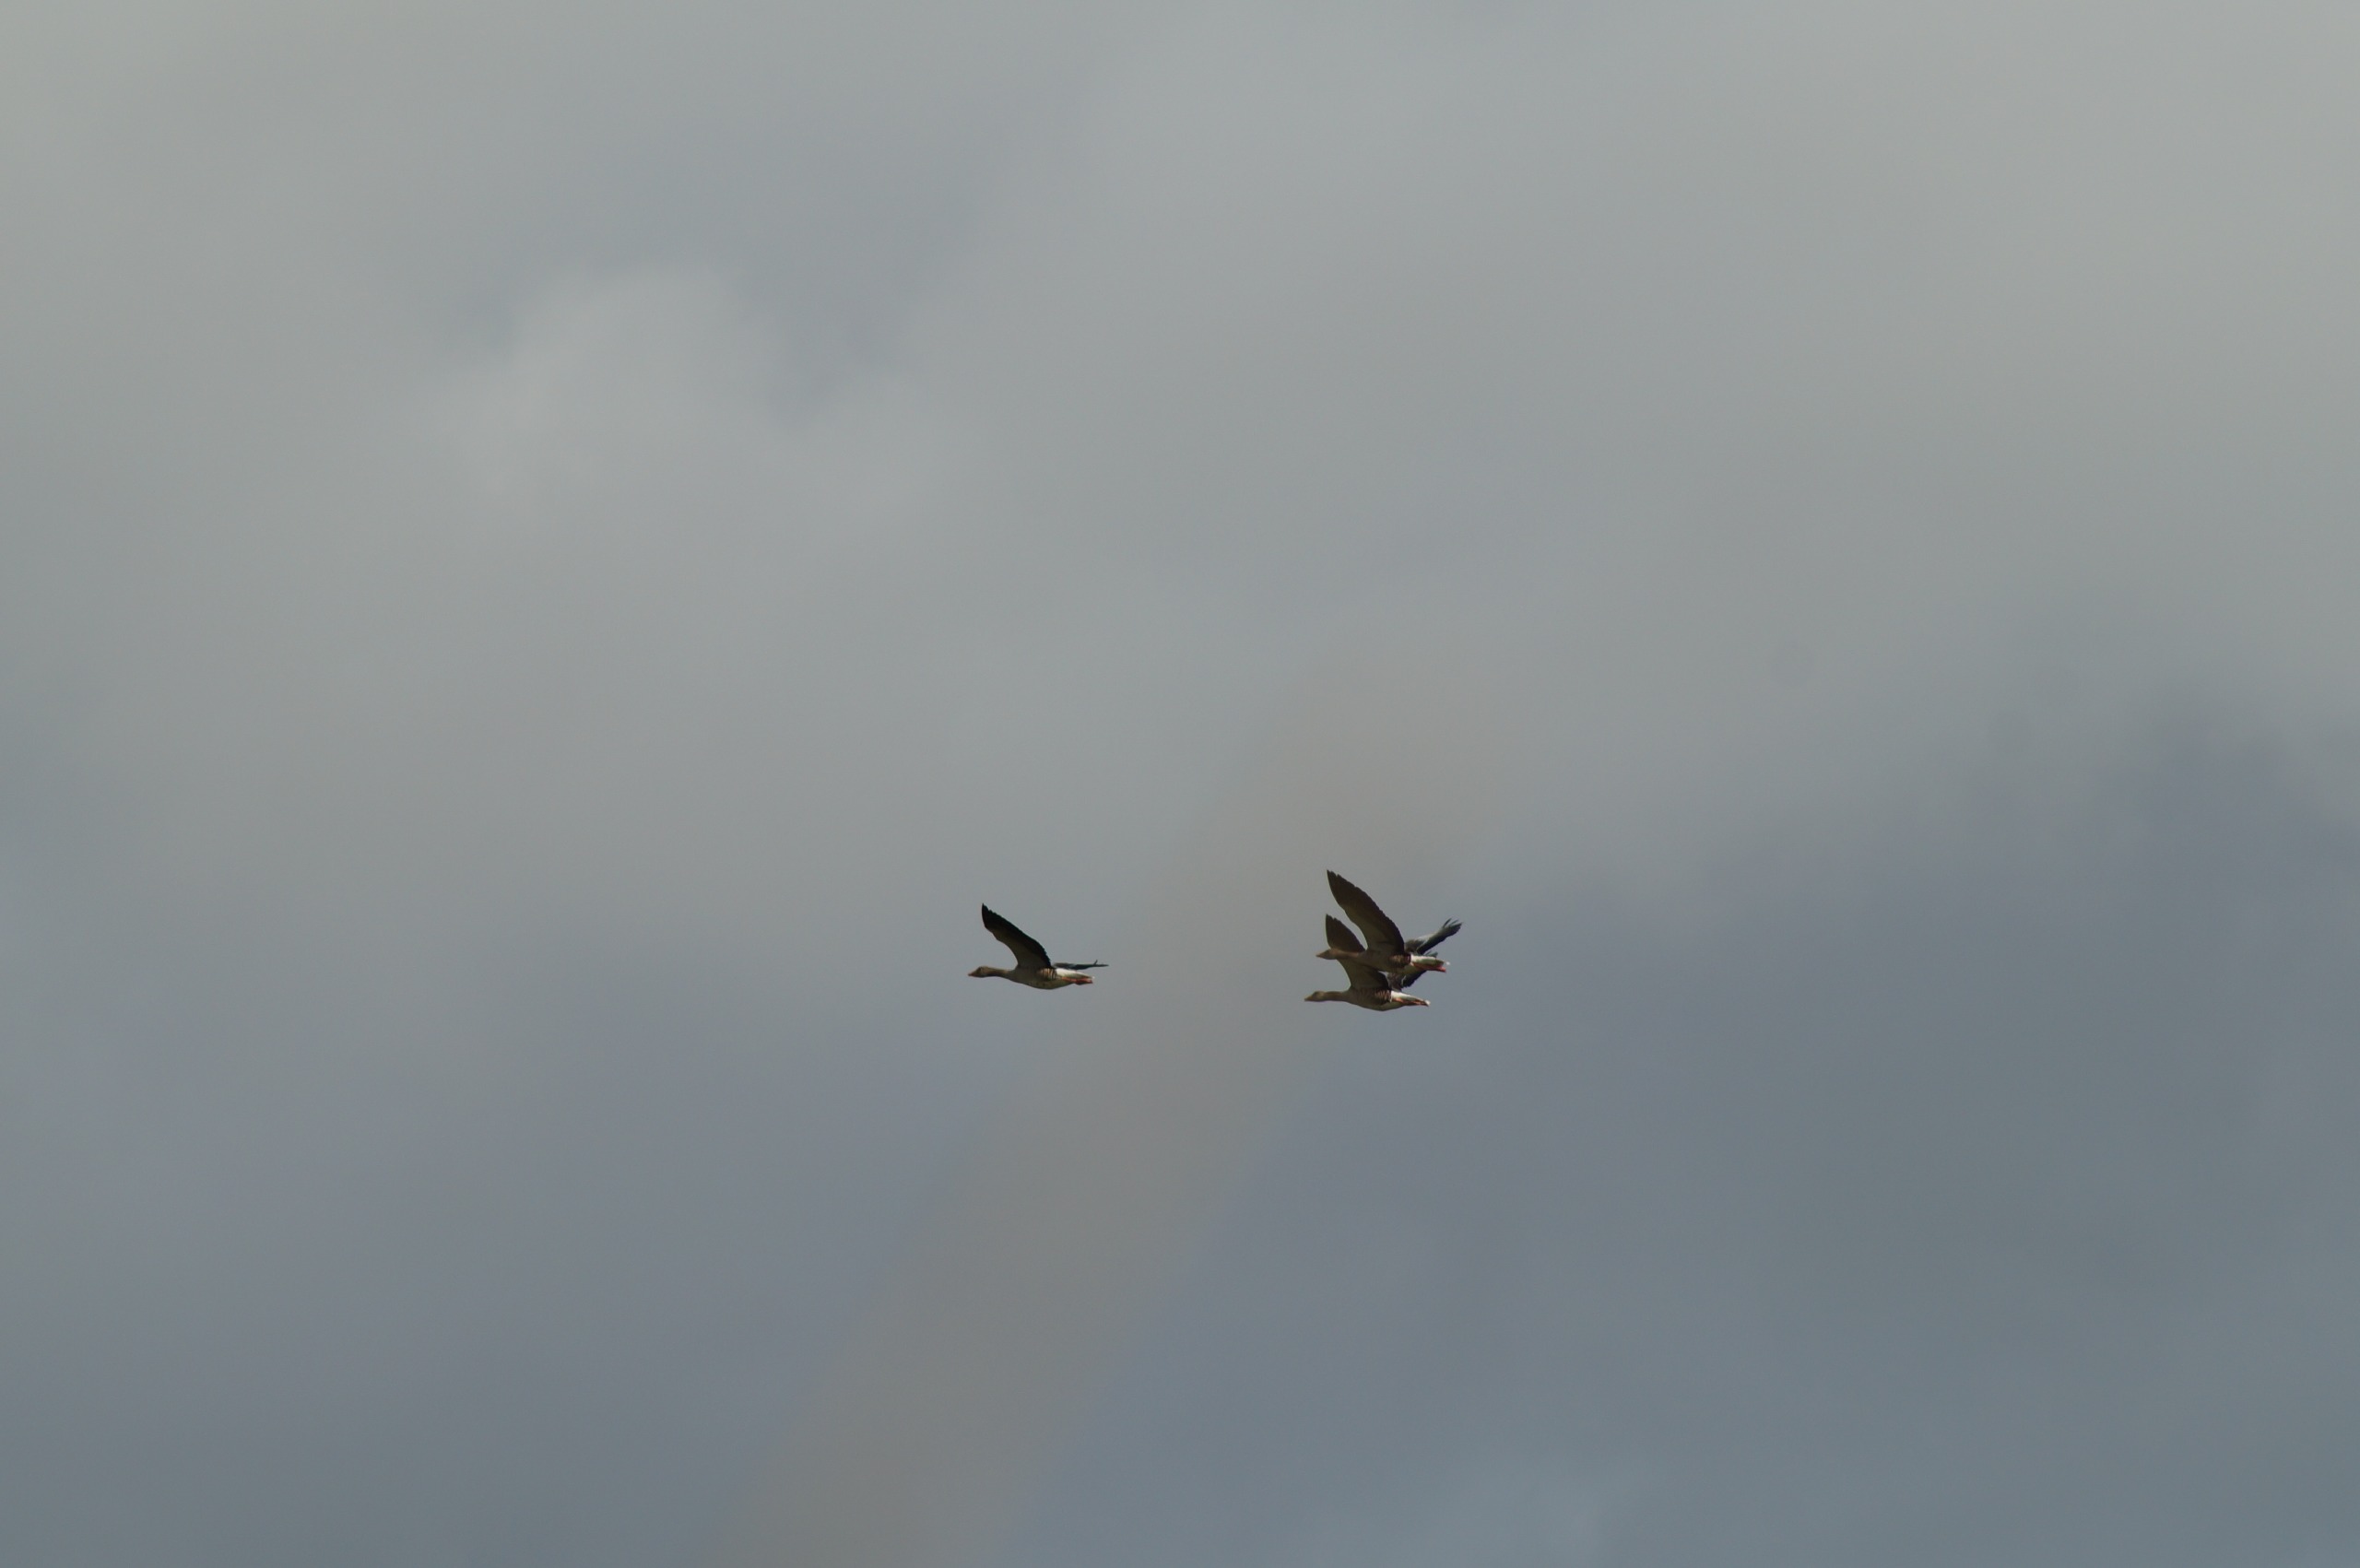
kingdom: Animalia
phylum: Chordata
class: Aves
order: Anseriformes
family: Anatidae
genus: Anser
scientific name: Anser anser
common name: Grågås
